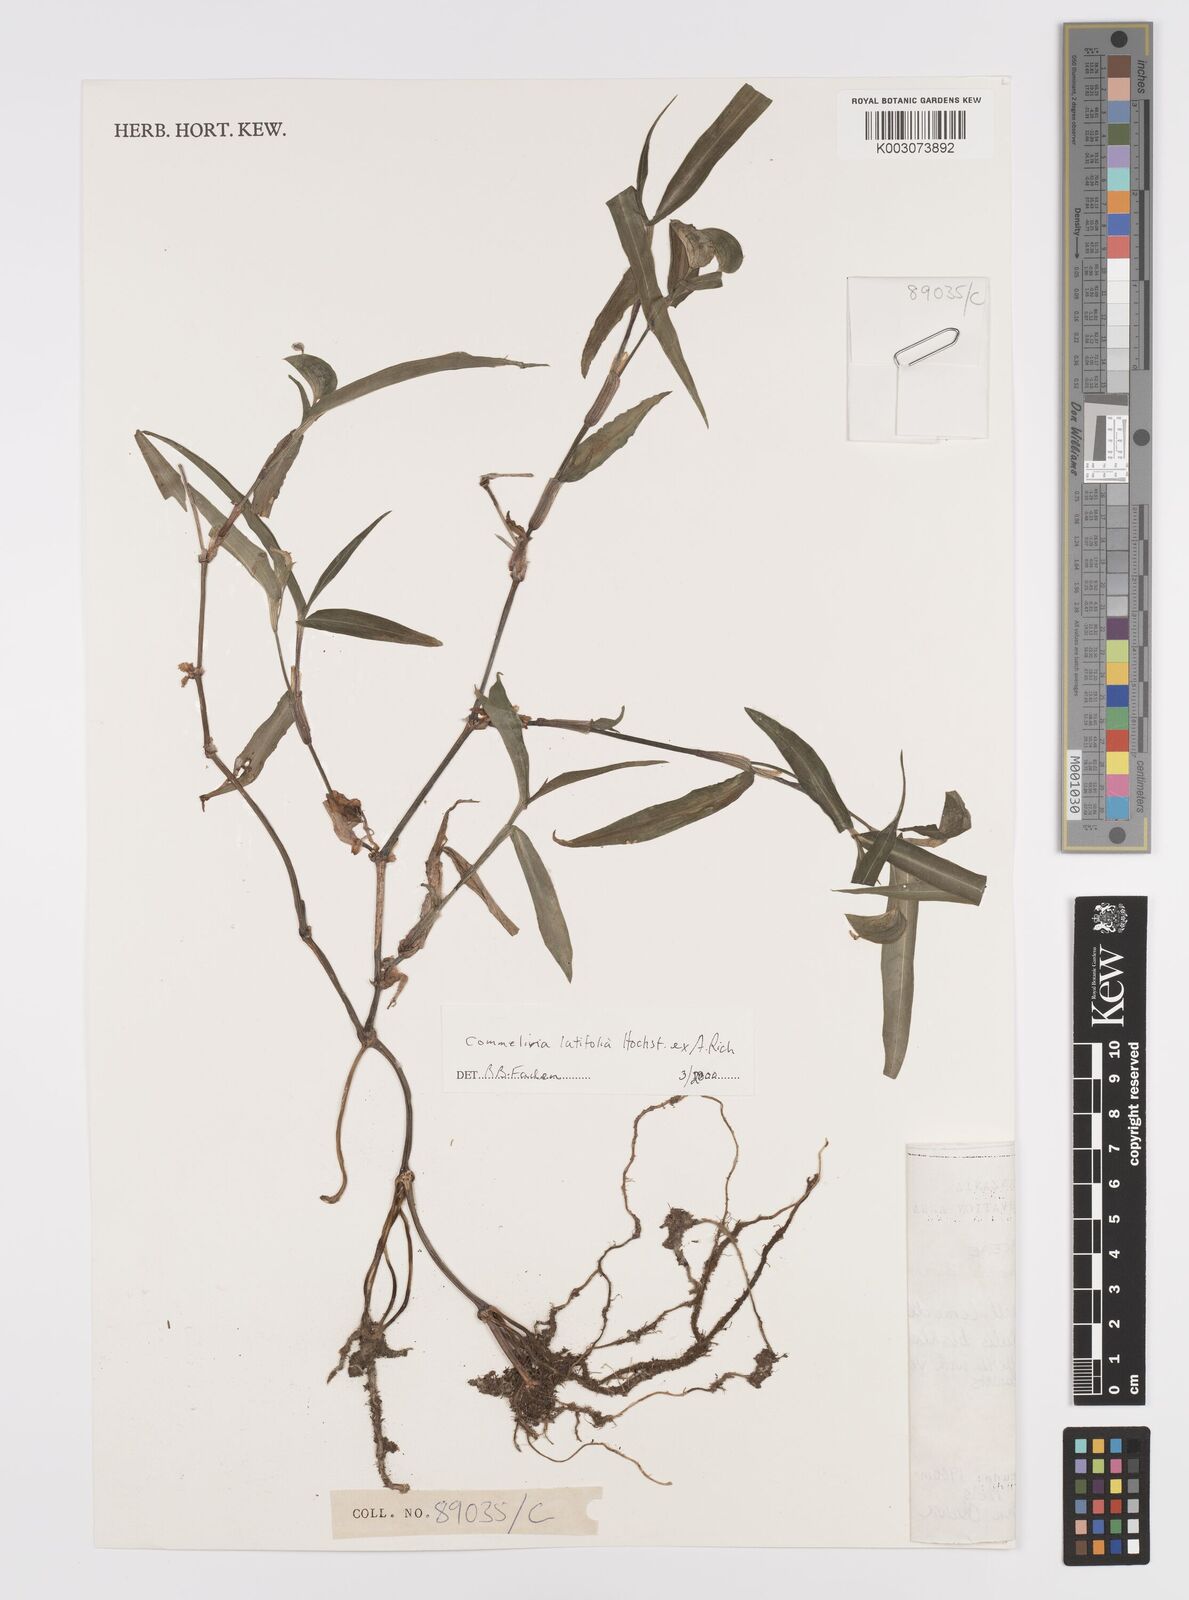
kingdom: Plantae
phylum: Tracheophyta
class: Liliopsida
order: Commelinales
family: Commelinaceae
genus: Commelina
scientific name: Commelina latifolia
